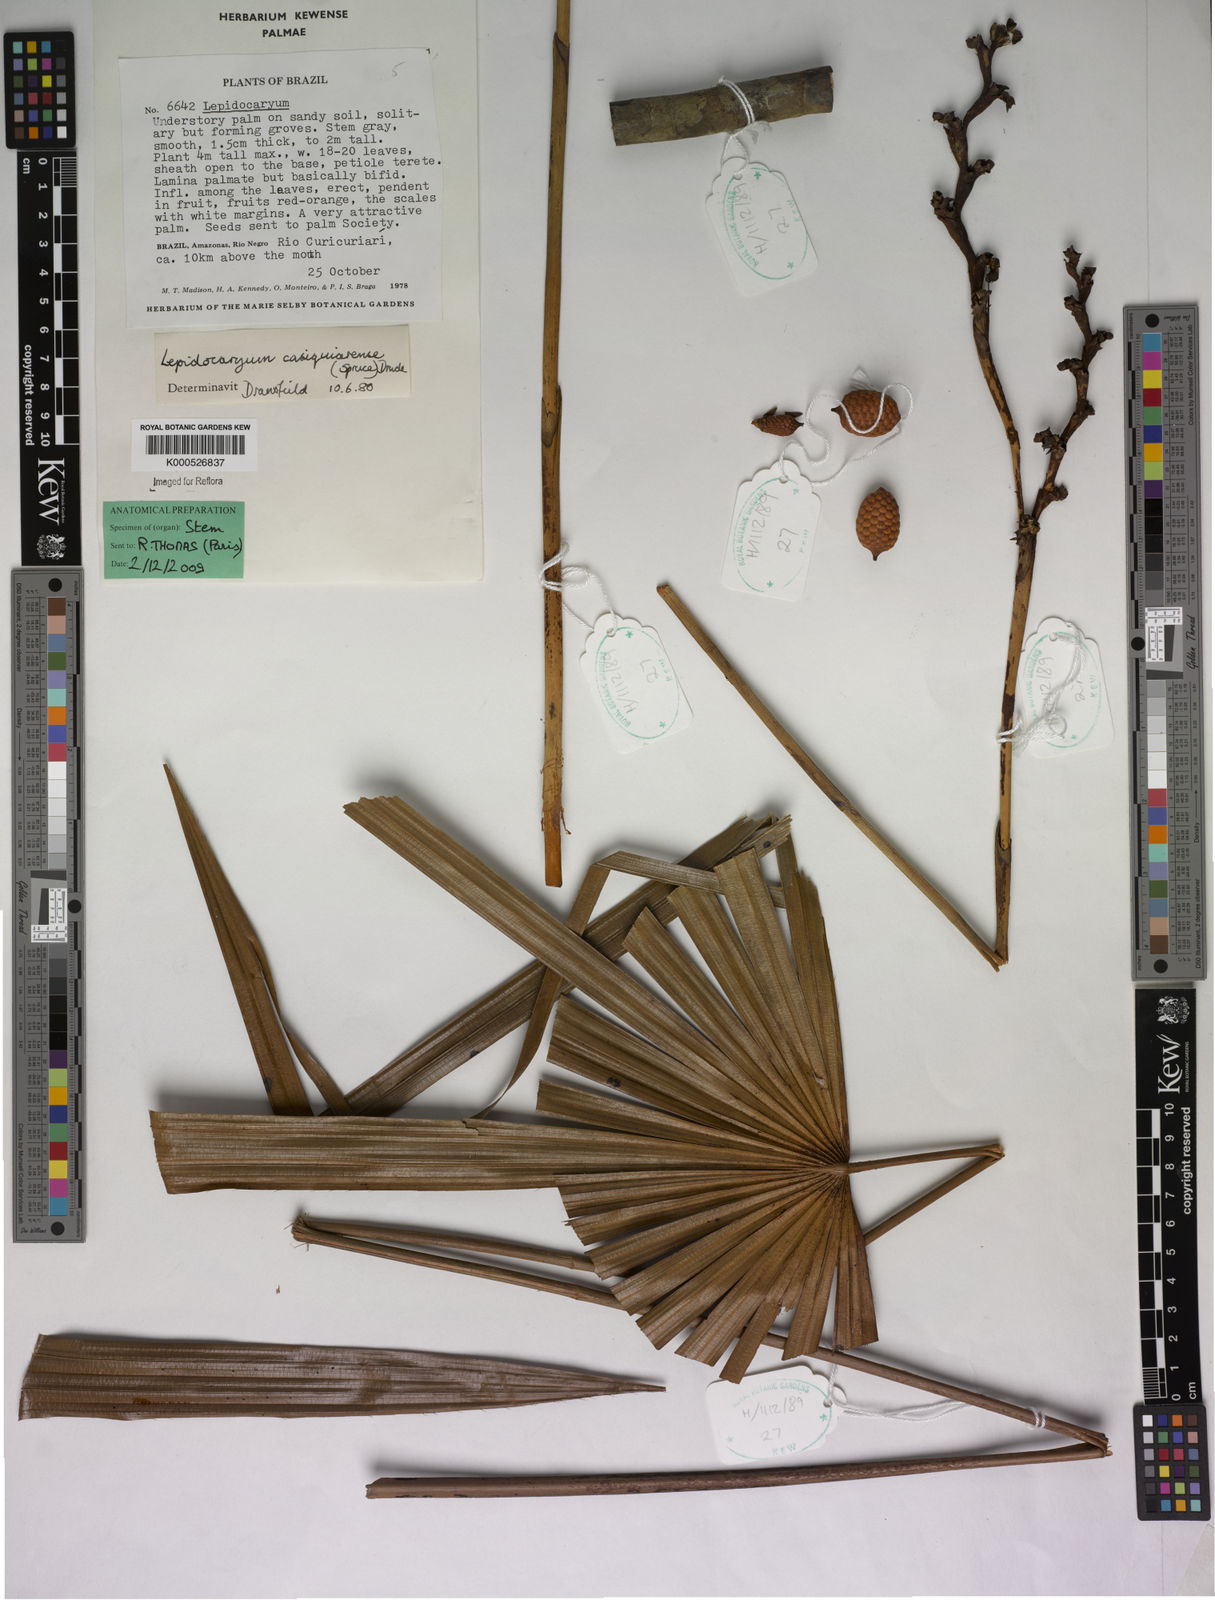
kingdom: Plantae
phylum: Tracheophyta
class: Liliopsida
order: Arecales
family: Arecaceae
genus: Lepidocaryum
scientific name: Lepidocaryum tenue
